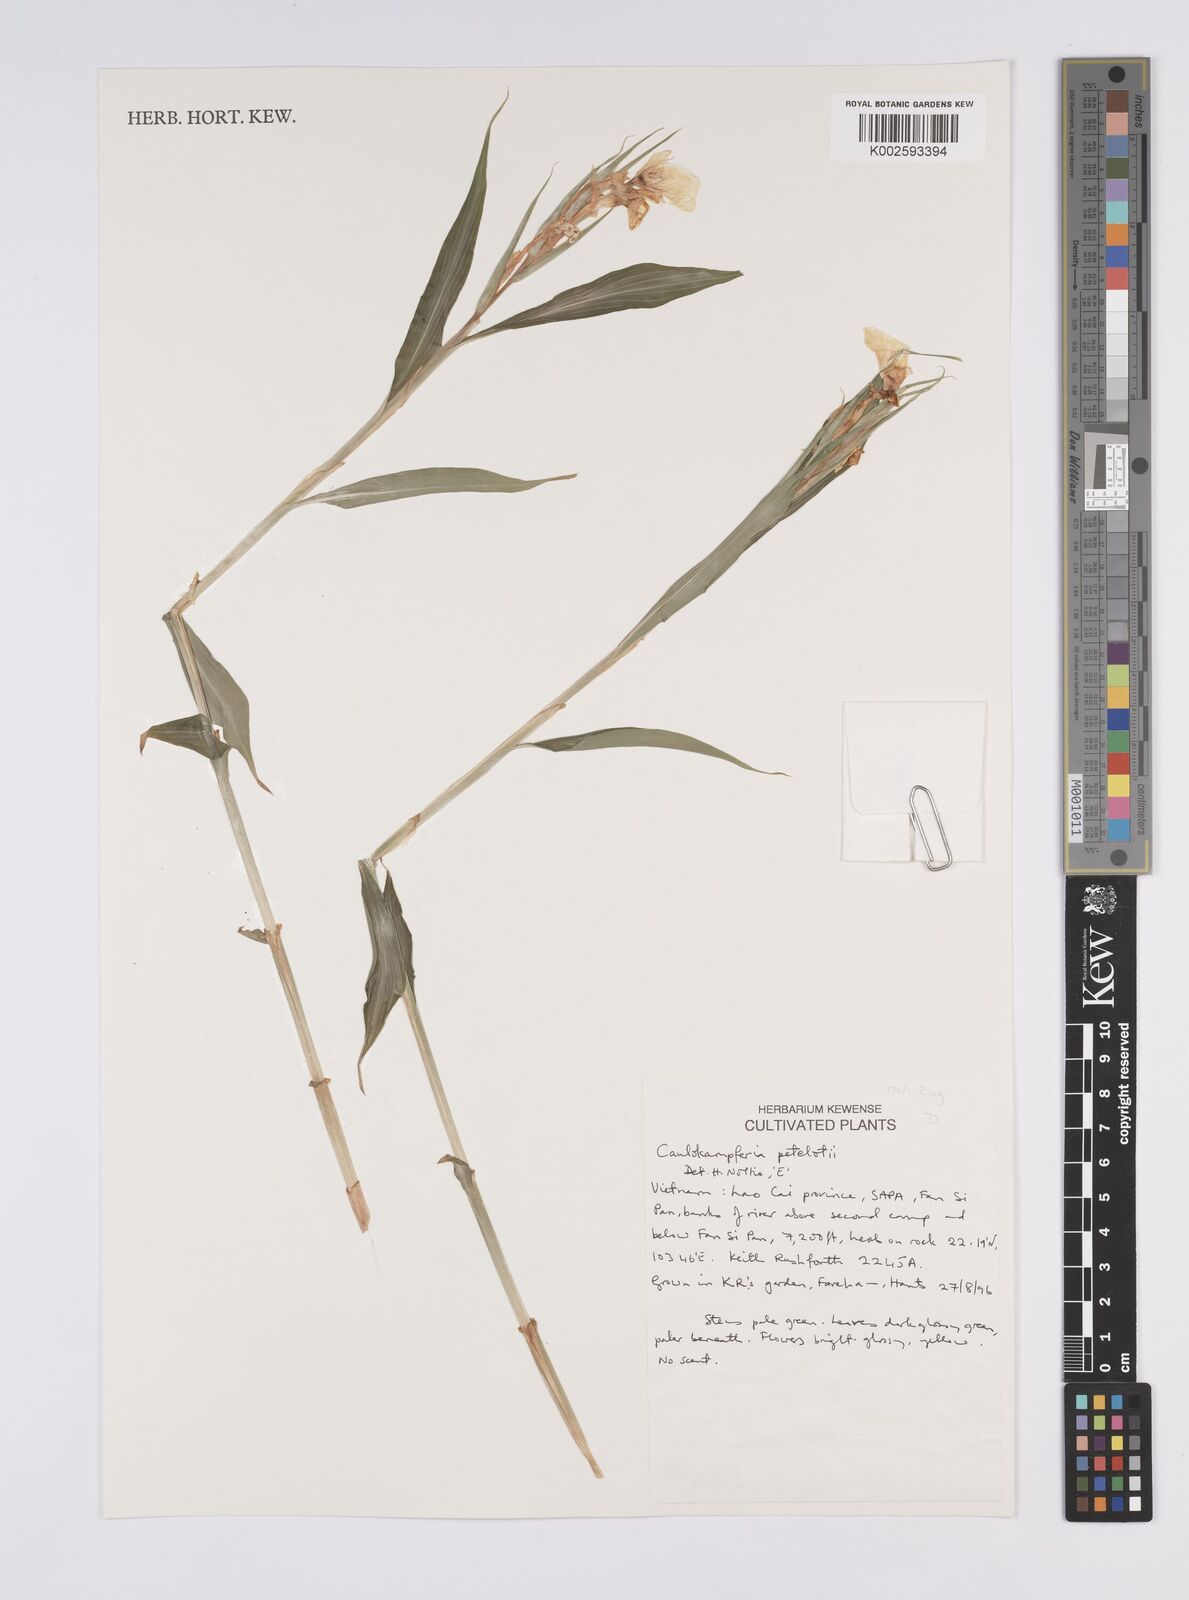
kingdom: Plantae
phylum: Tracheophyta
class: Liliopsida
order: Zingiberales
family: Zingiberaceae
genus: Caulokaempferia
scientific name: Caulokaempferia petelotii
